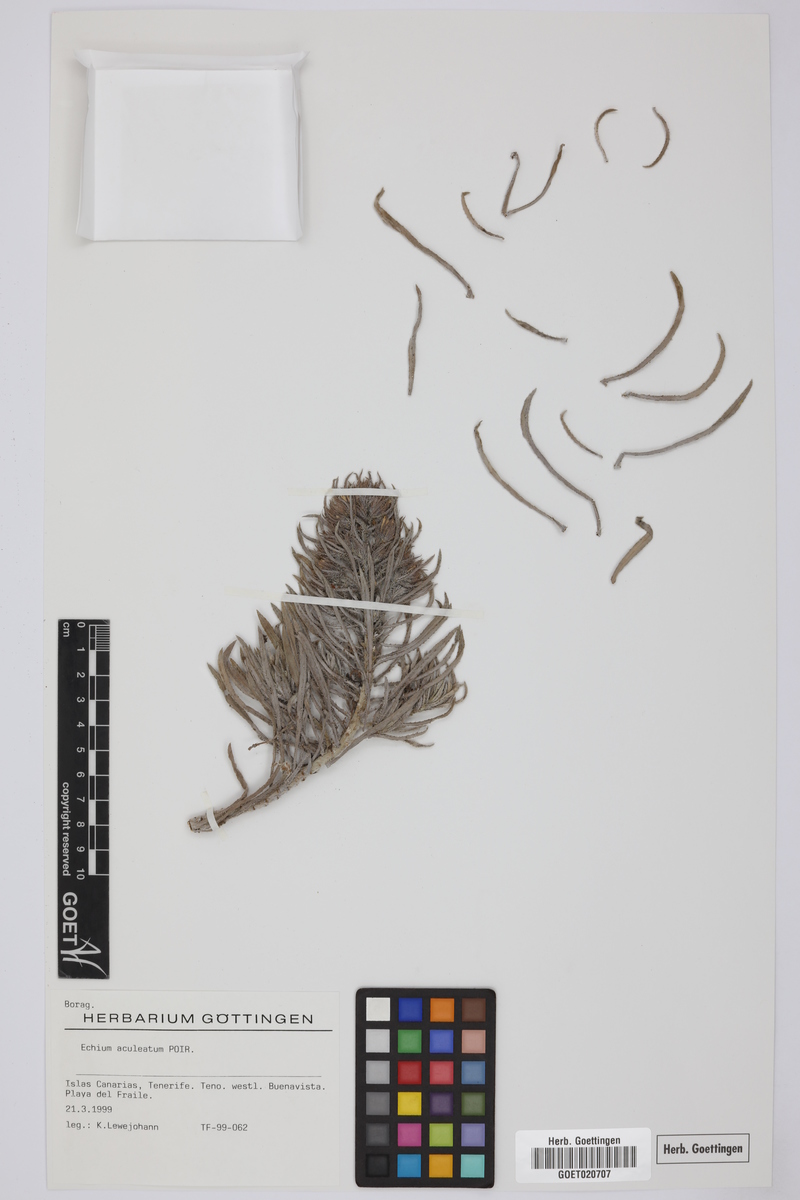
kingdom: Plantae
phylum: Tracheophyta
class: Magnoliopsida
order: Boraginales
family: Boraginaceae
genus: Echium
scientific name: Echium aculeatum
